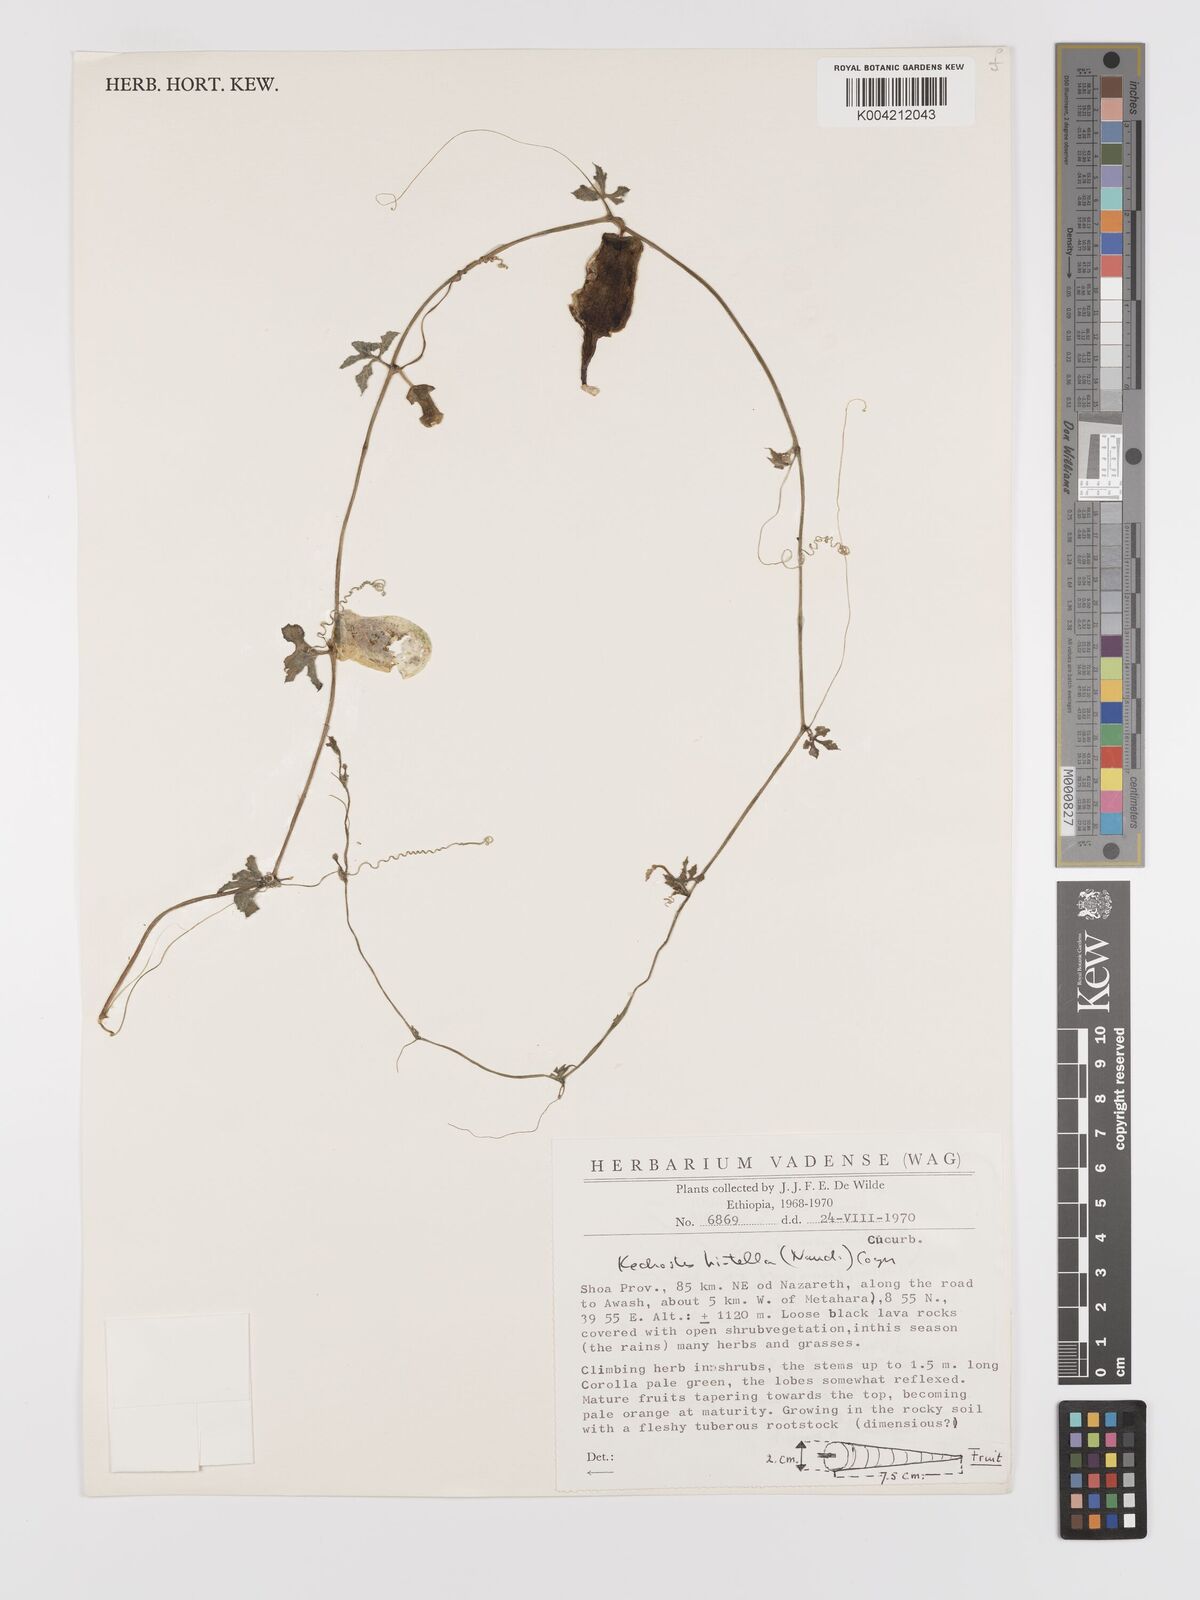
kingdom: Plantae
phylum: Tracheophyta
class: Magnoliopsida
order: Cucurbitales
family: Cucurbitaceae
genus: Kedrostis
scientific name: Kedrostis leloja
